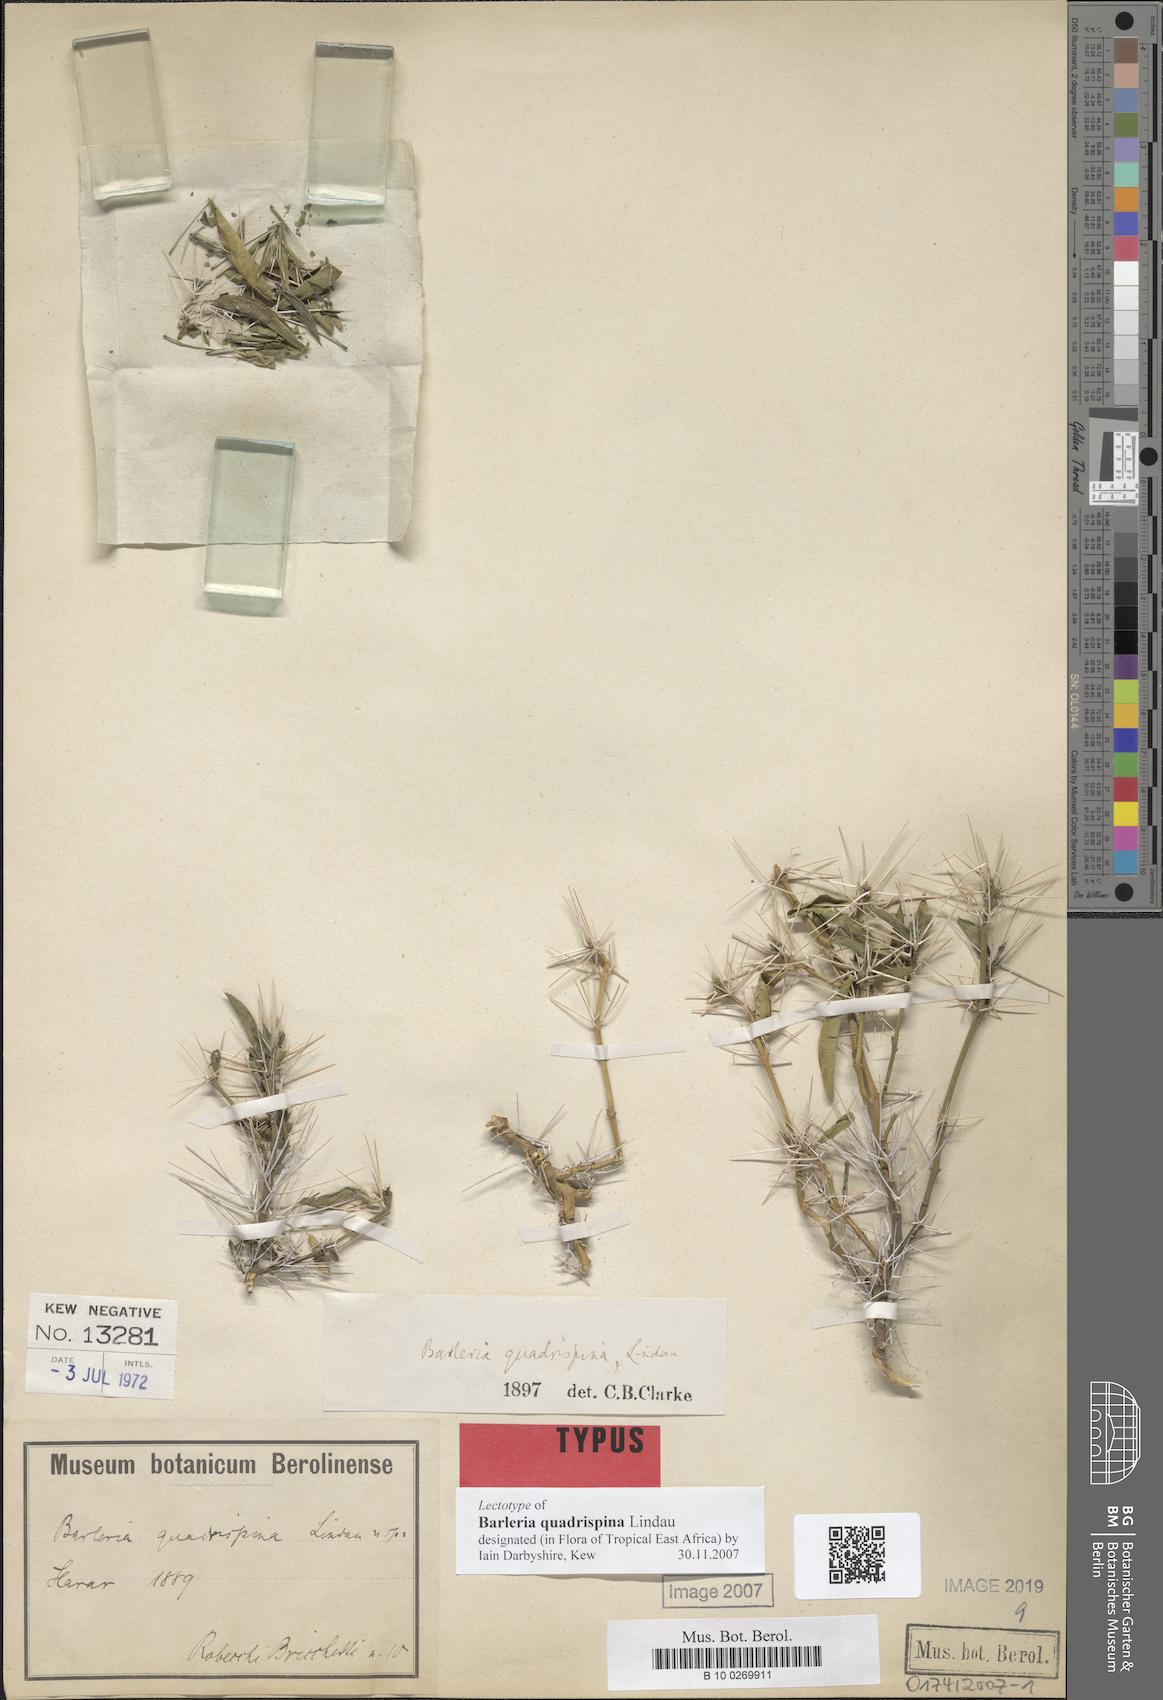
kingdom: Plantae
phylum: Tracheophyta
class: Magnoliopsida
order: Lamiales
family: Acanthaceae
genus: Barleria
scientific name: Barleria quadrispina
